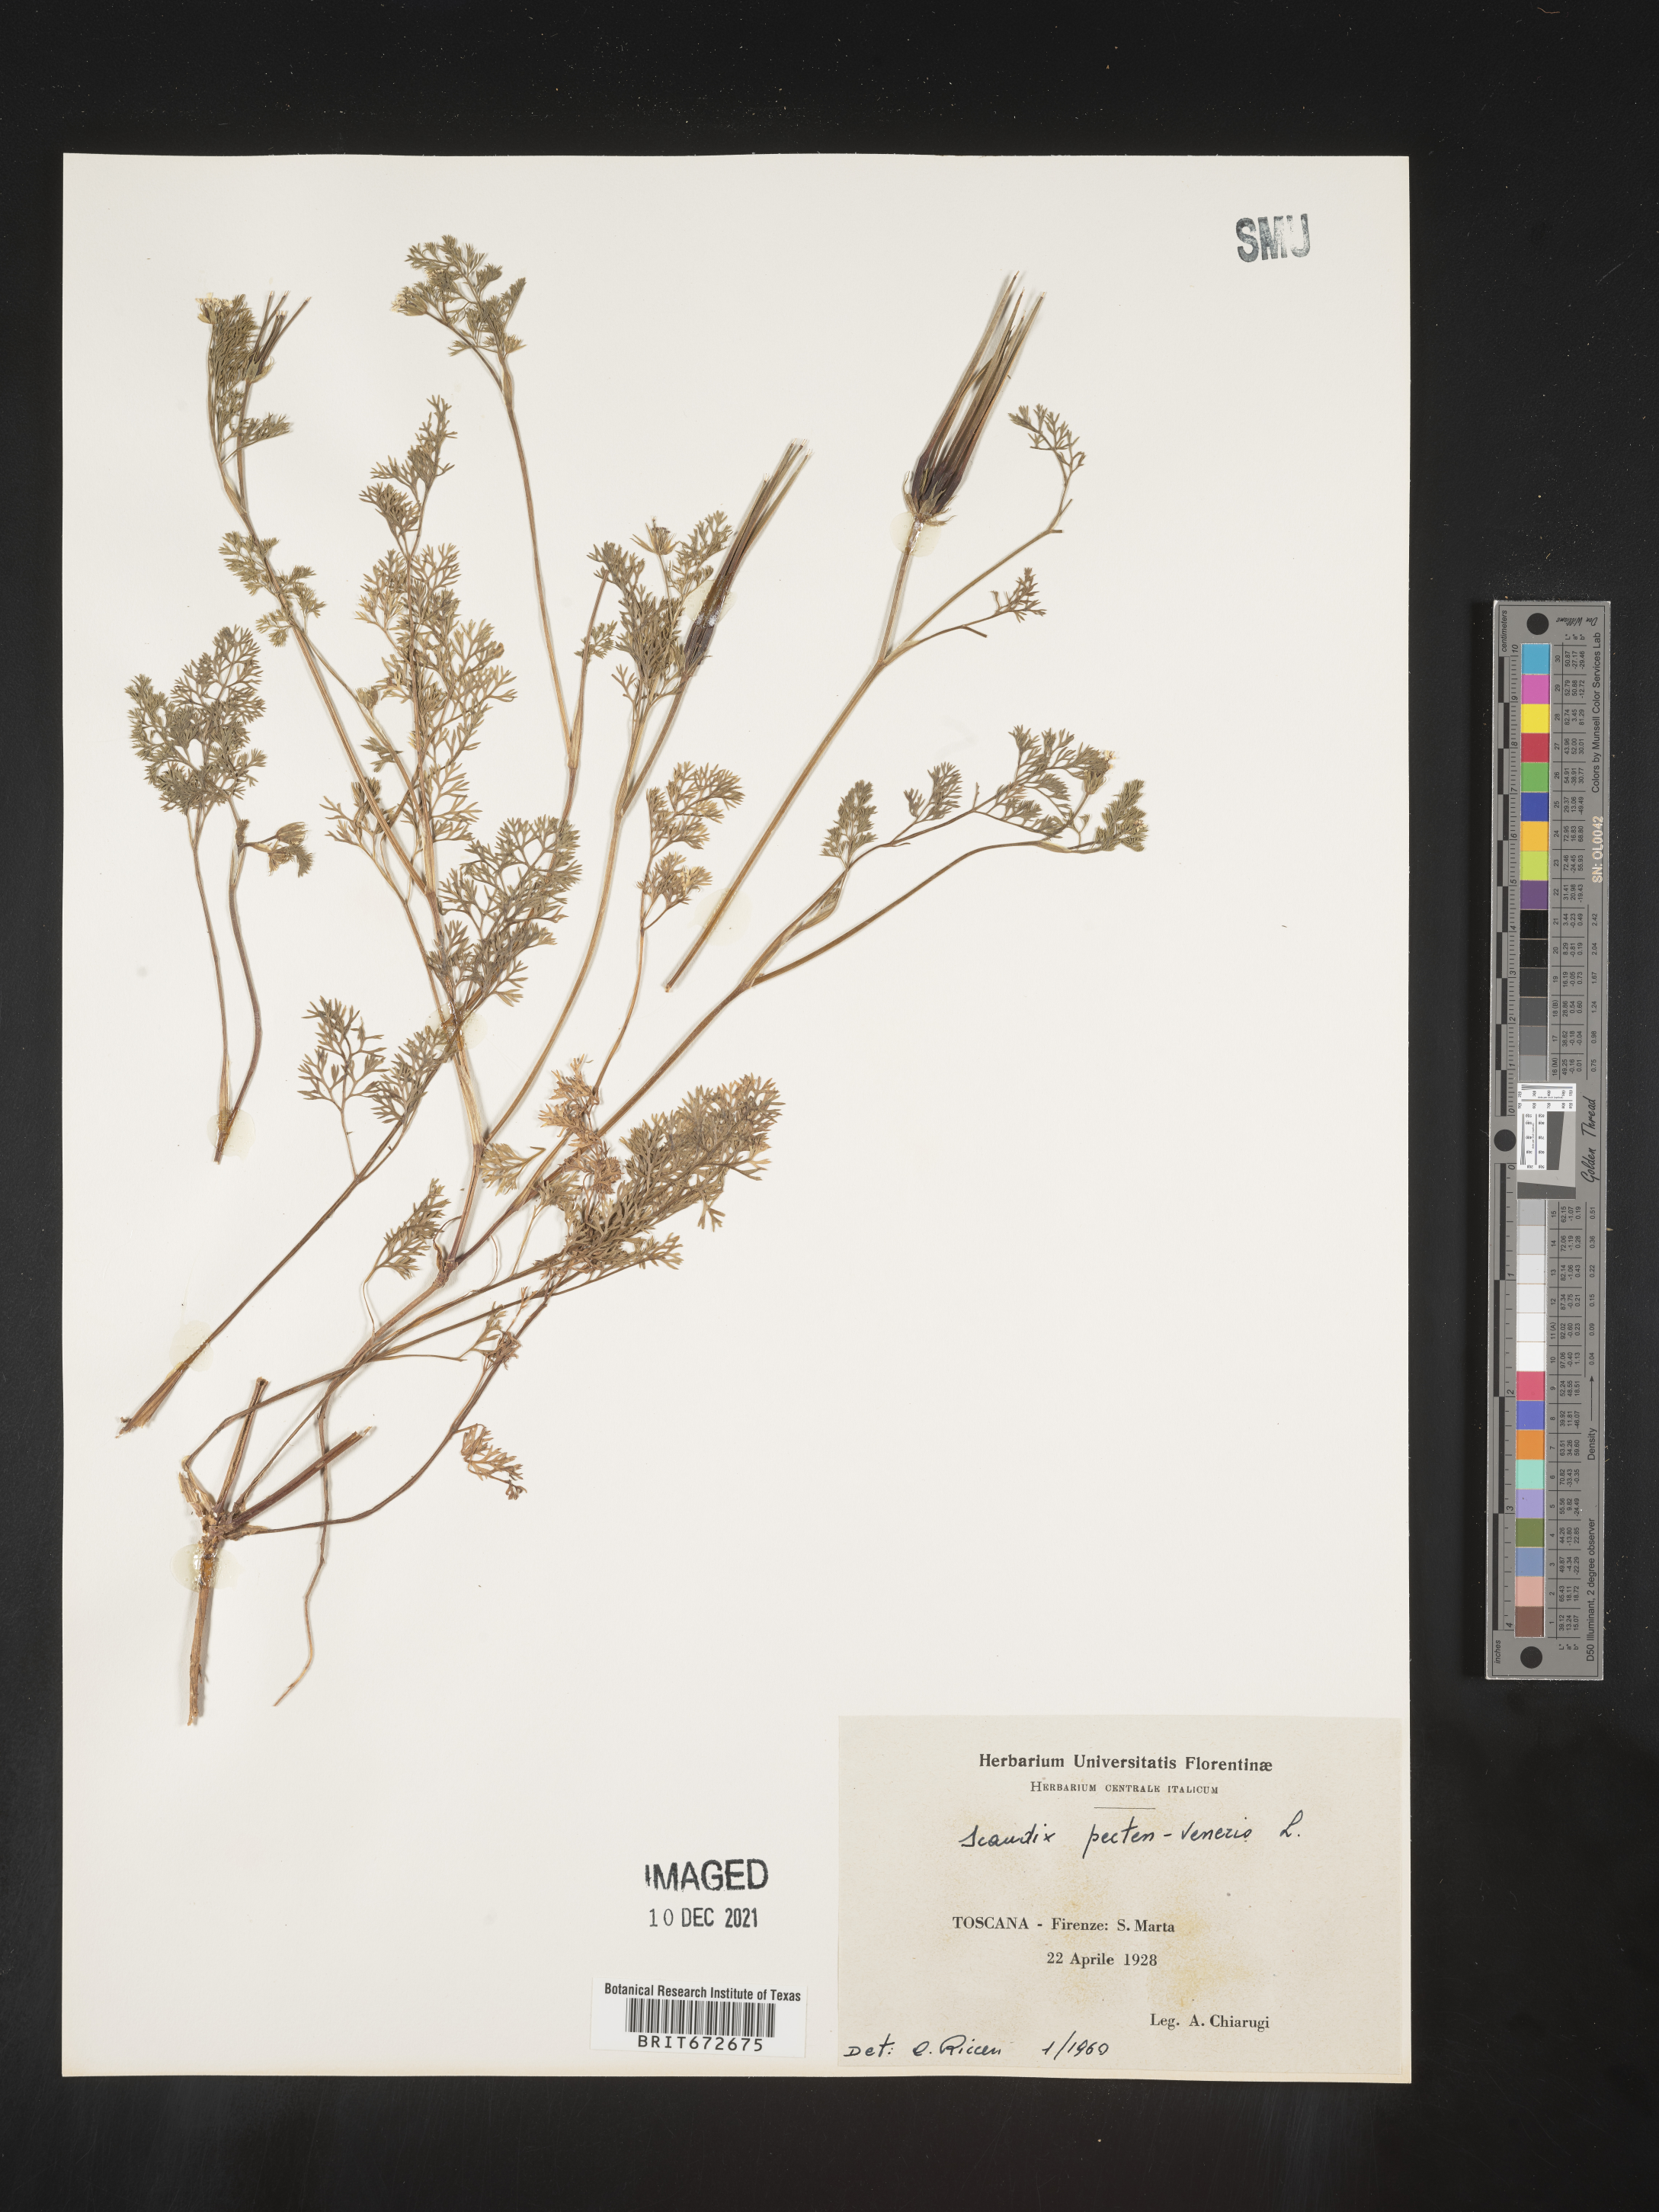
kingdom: Plantae
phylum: Tracheophyta
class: Magnoliopsida
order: Apiales
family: Apiaceae
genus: Scandix
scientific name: Scandix
